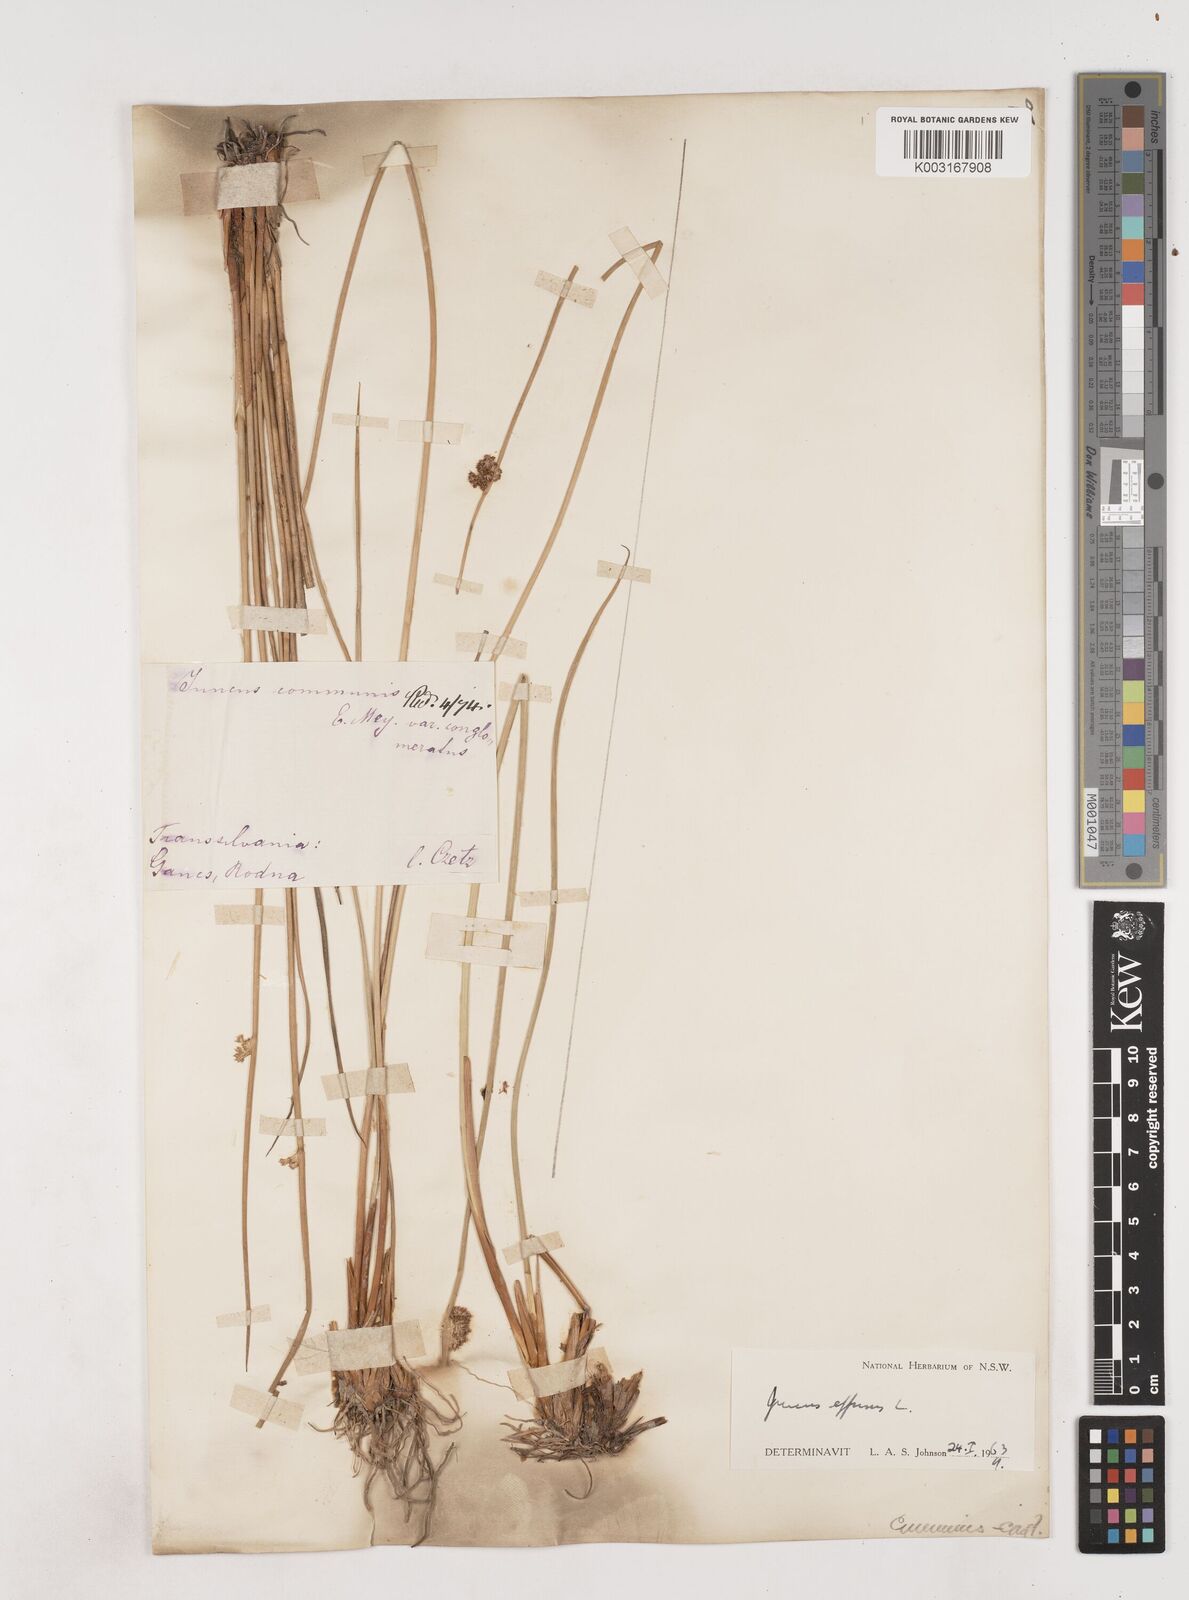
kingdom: Plantae
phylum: Tracheophyta
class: Liliopsida
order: Poales
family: Juncaceae
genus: Juncus
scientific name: Juncus effusus
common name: Soft rush
